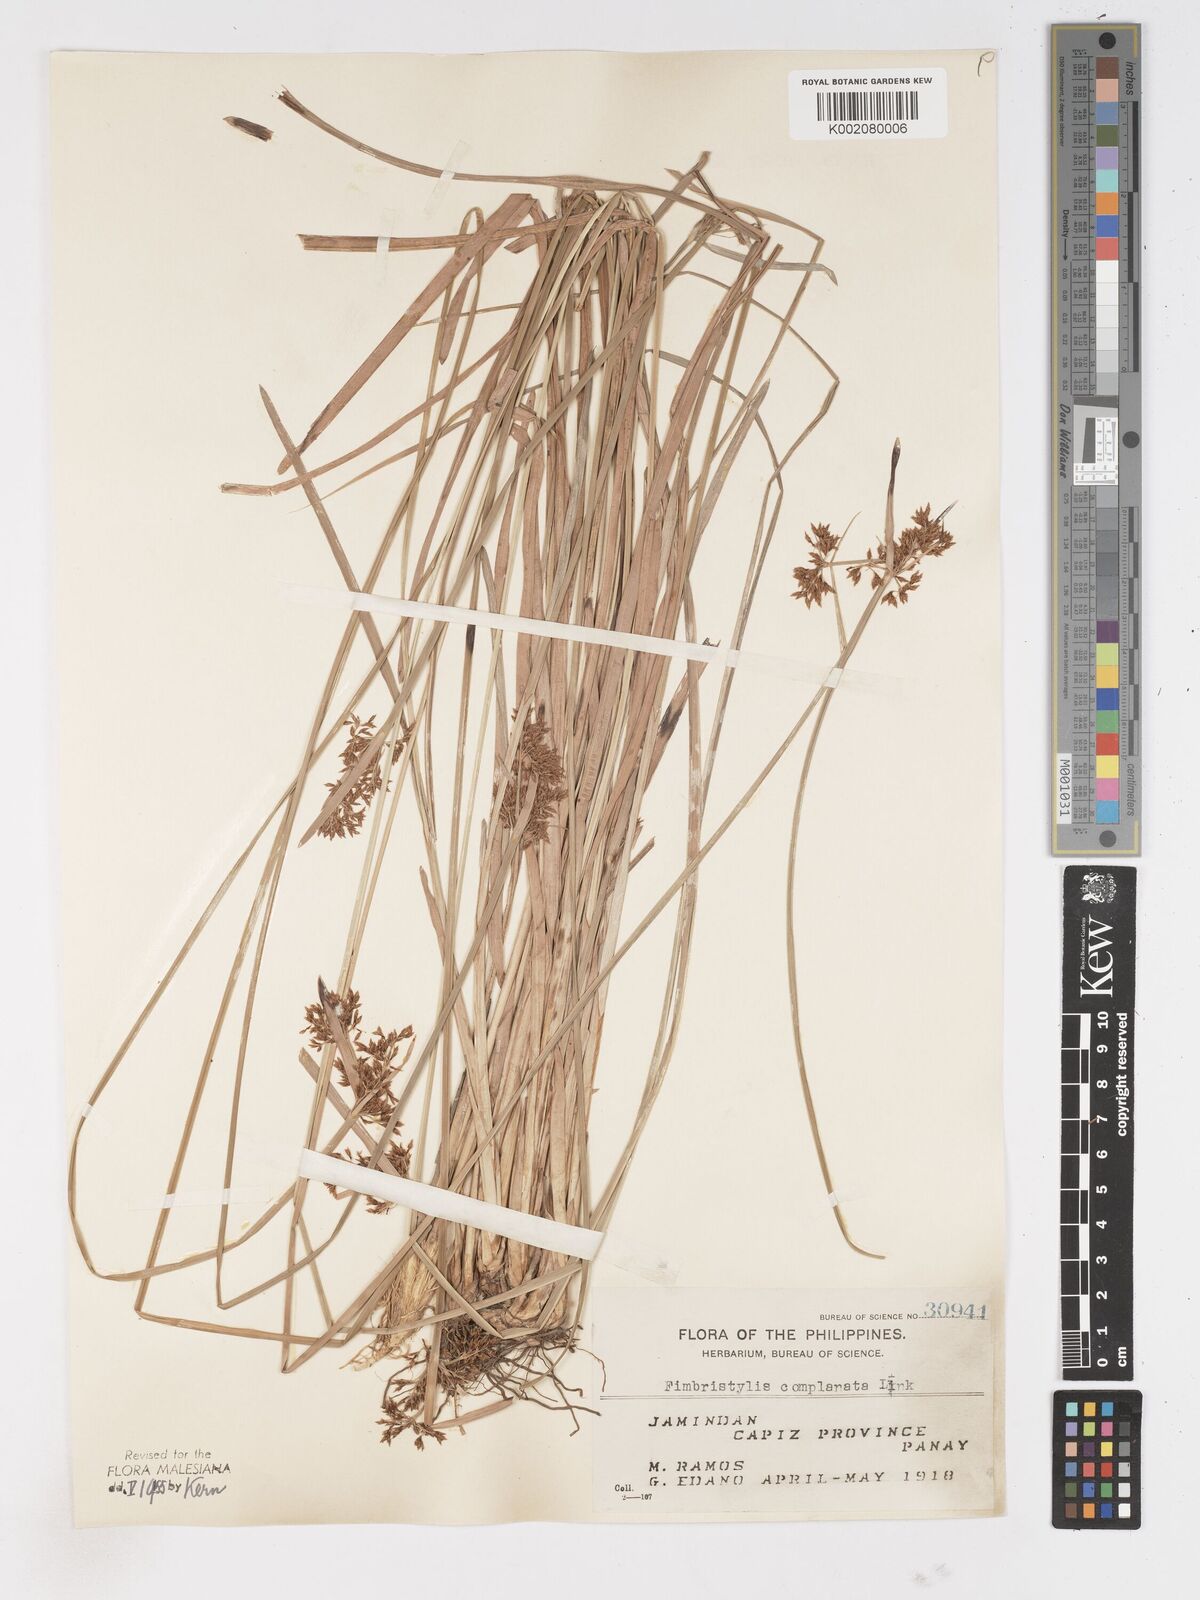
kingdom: Plantae
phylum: Tracheophyta
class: Liliopsida
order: Poales
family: Cyperaceae
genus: Fimbristylis
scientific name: Fimbristylis complanata
